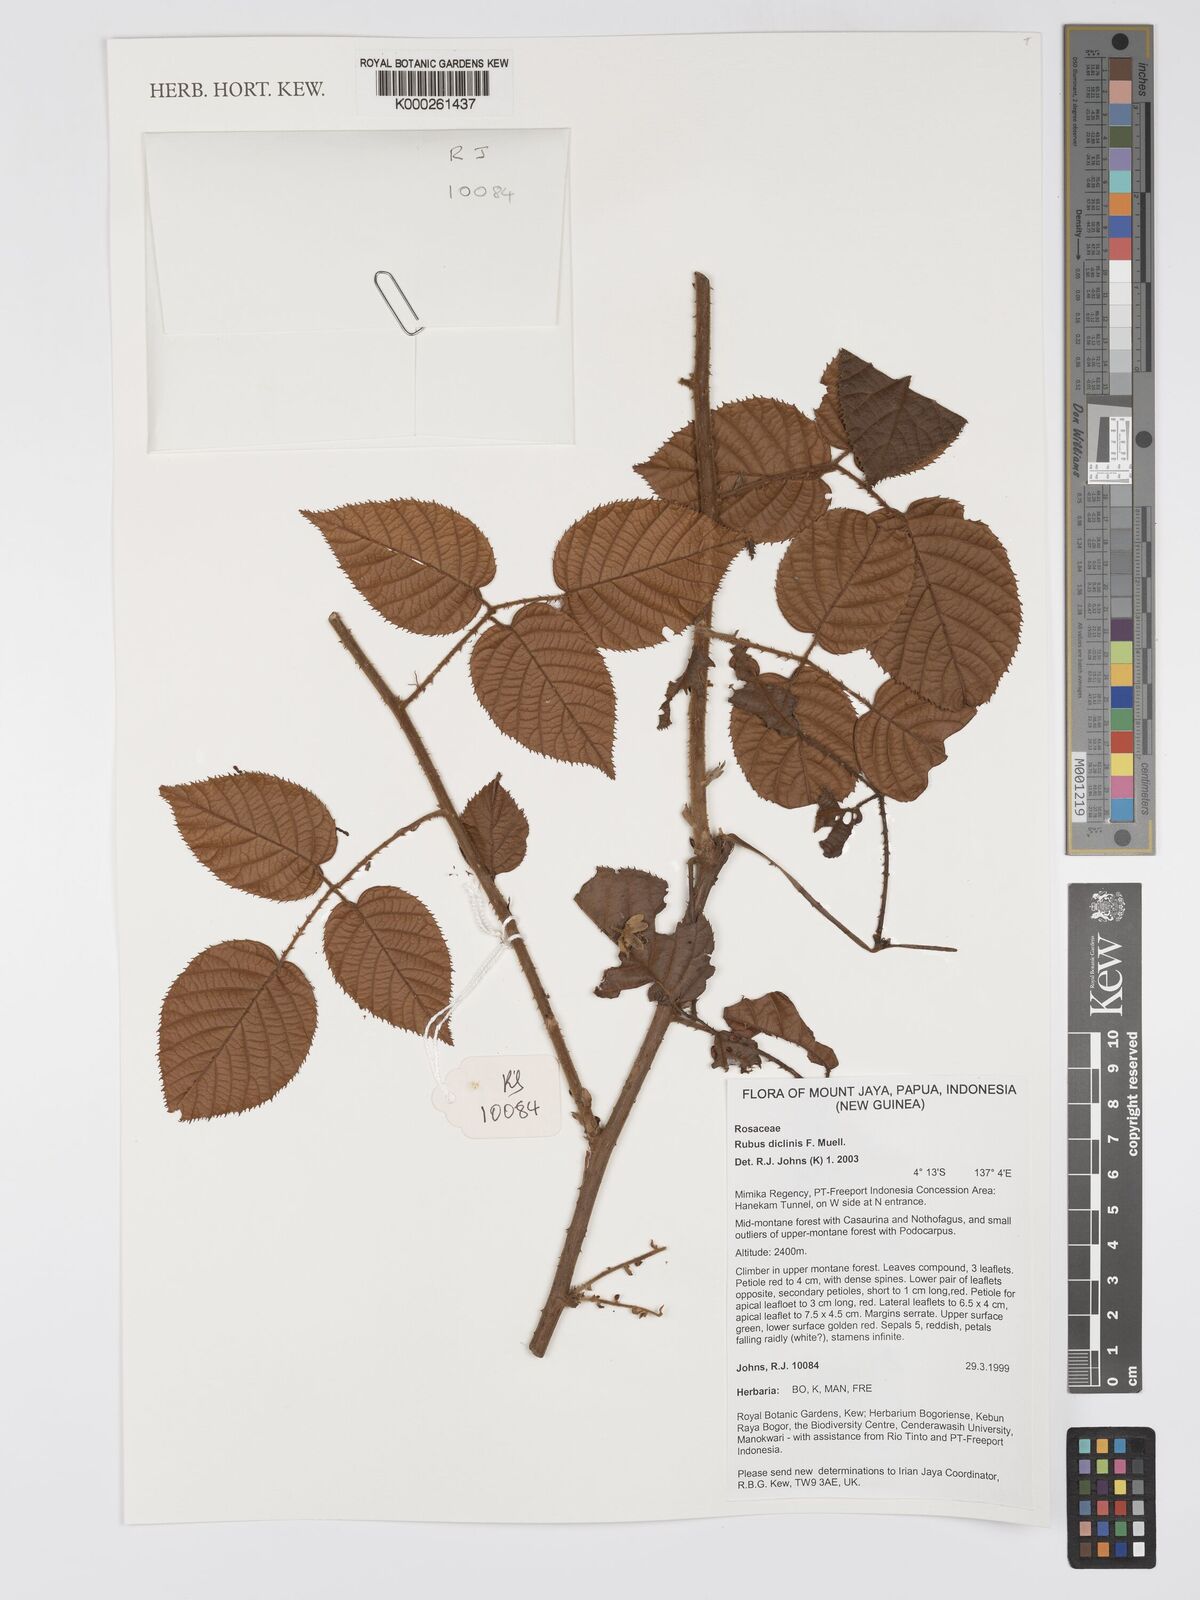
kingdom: Plantae
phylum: Tracheophyta
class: Magnoliopsida
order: Rosales
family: Rosaceae
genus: Rubus
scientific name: Rubus diclinis
